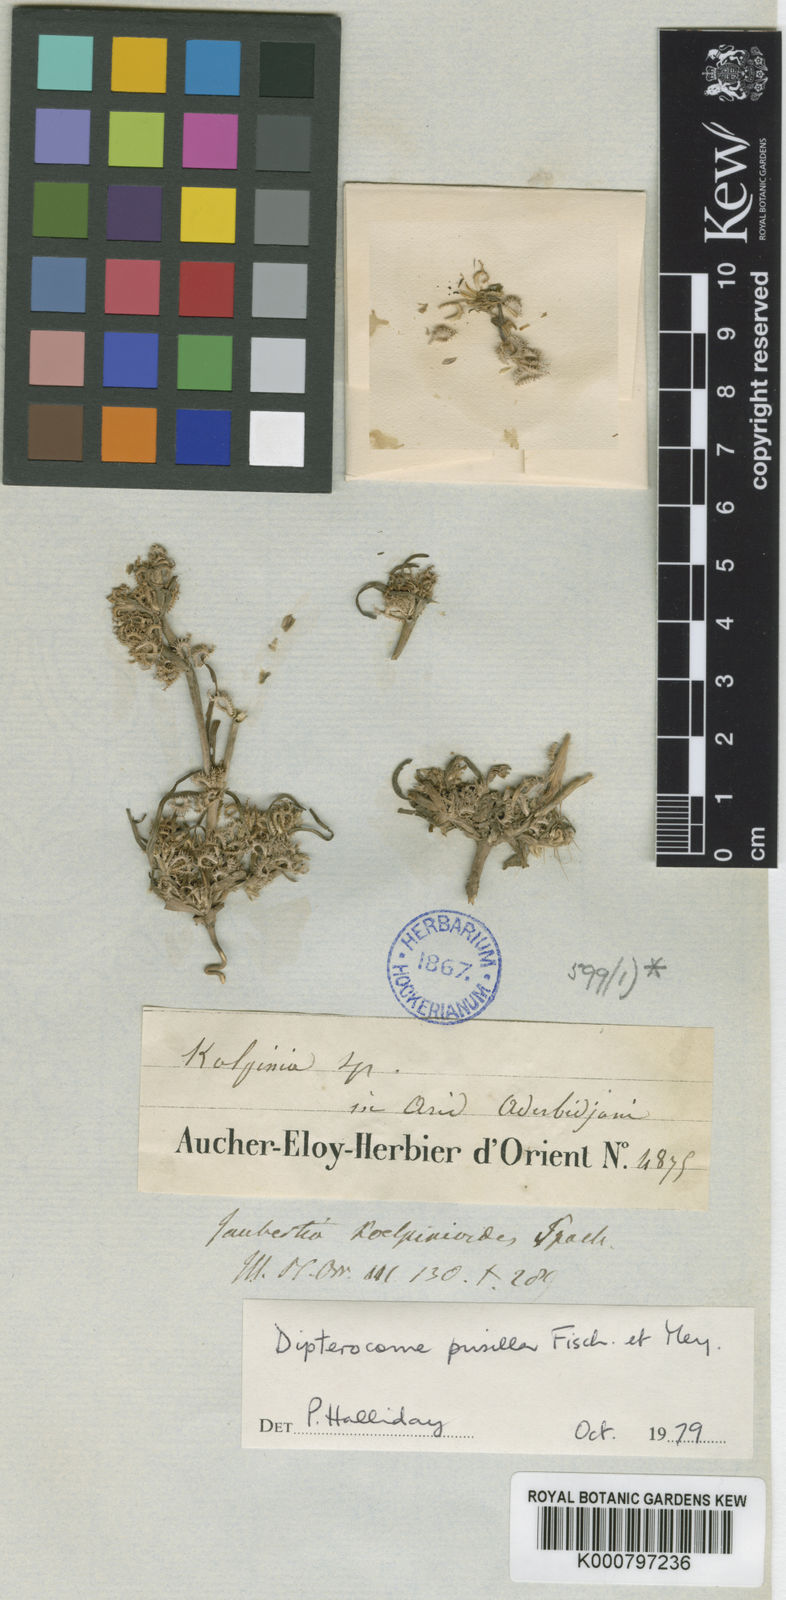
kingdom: Plantae
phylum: Tracheophyta
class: Magnoliopsida
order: Asterales
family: Asteraceae
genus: Dipterocome
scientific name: Dipterocome pusilla
